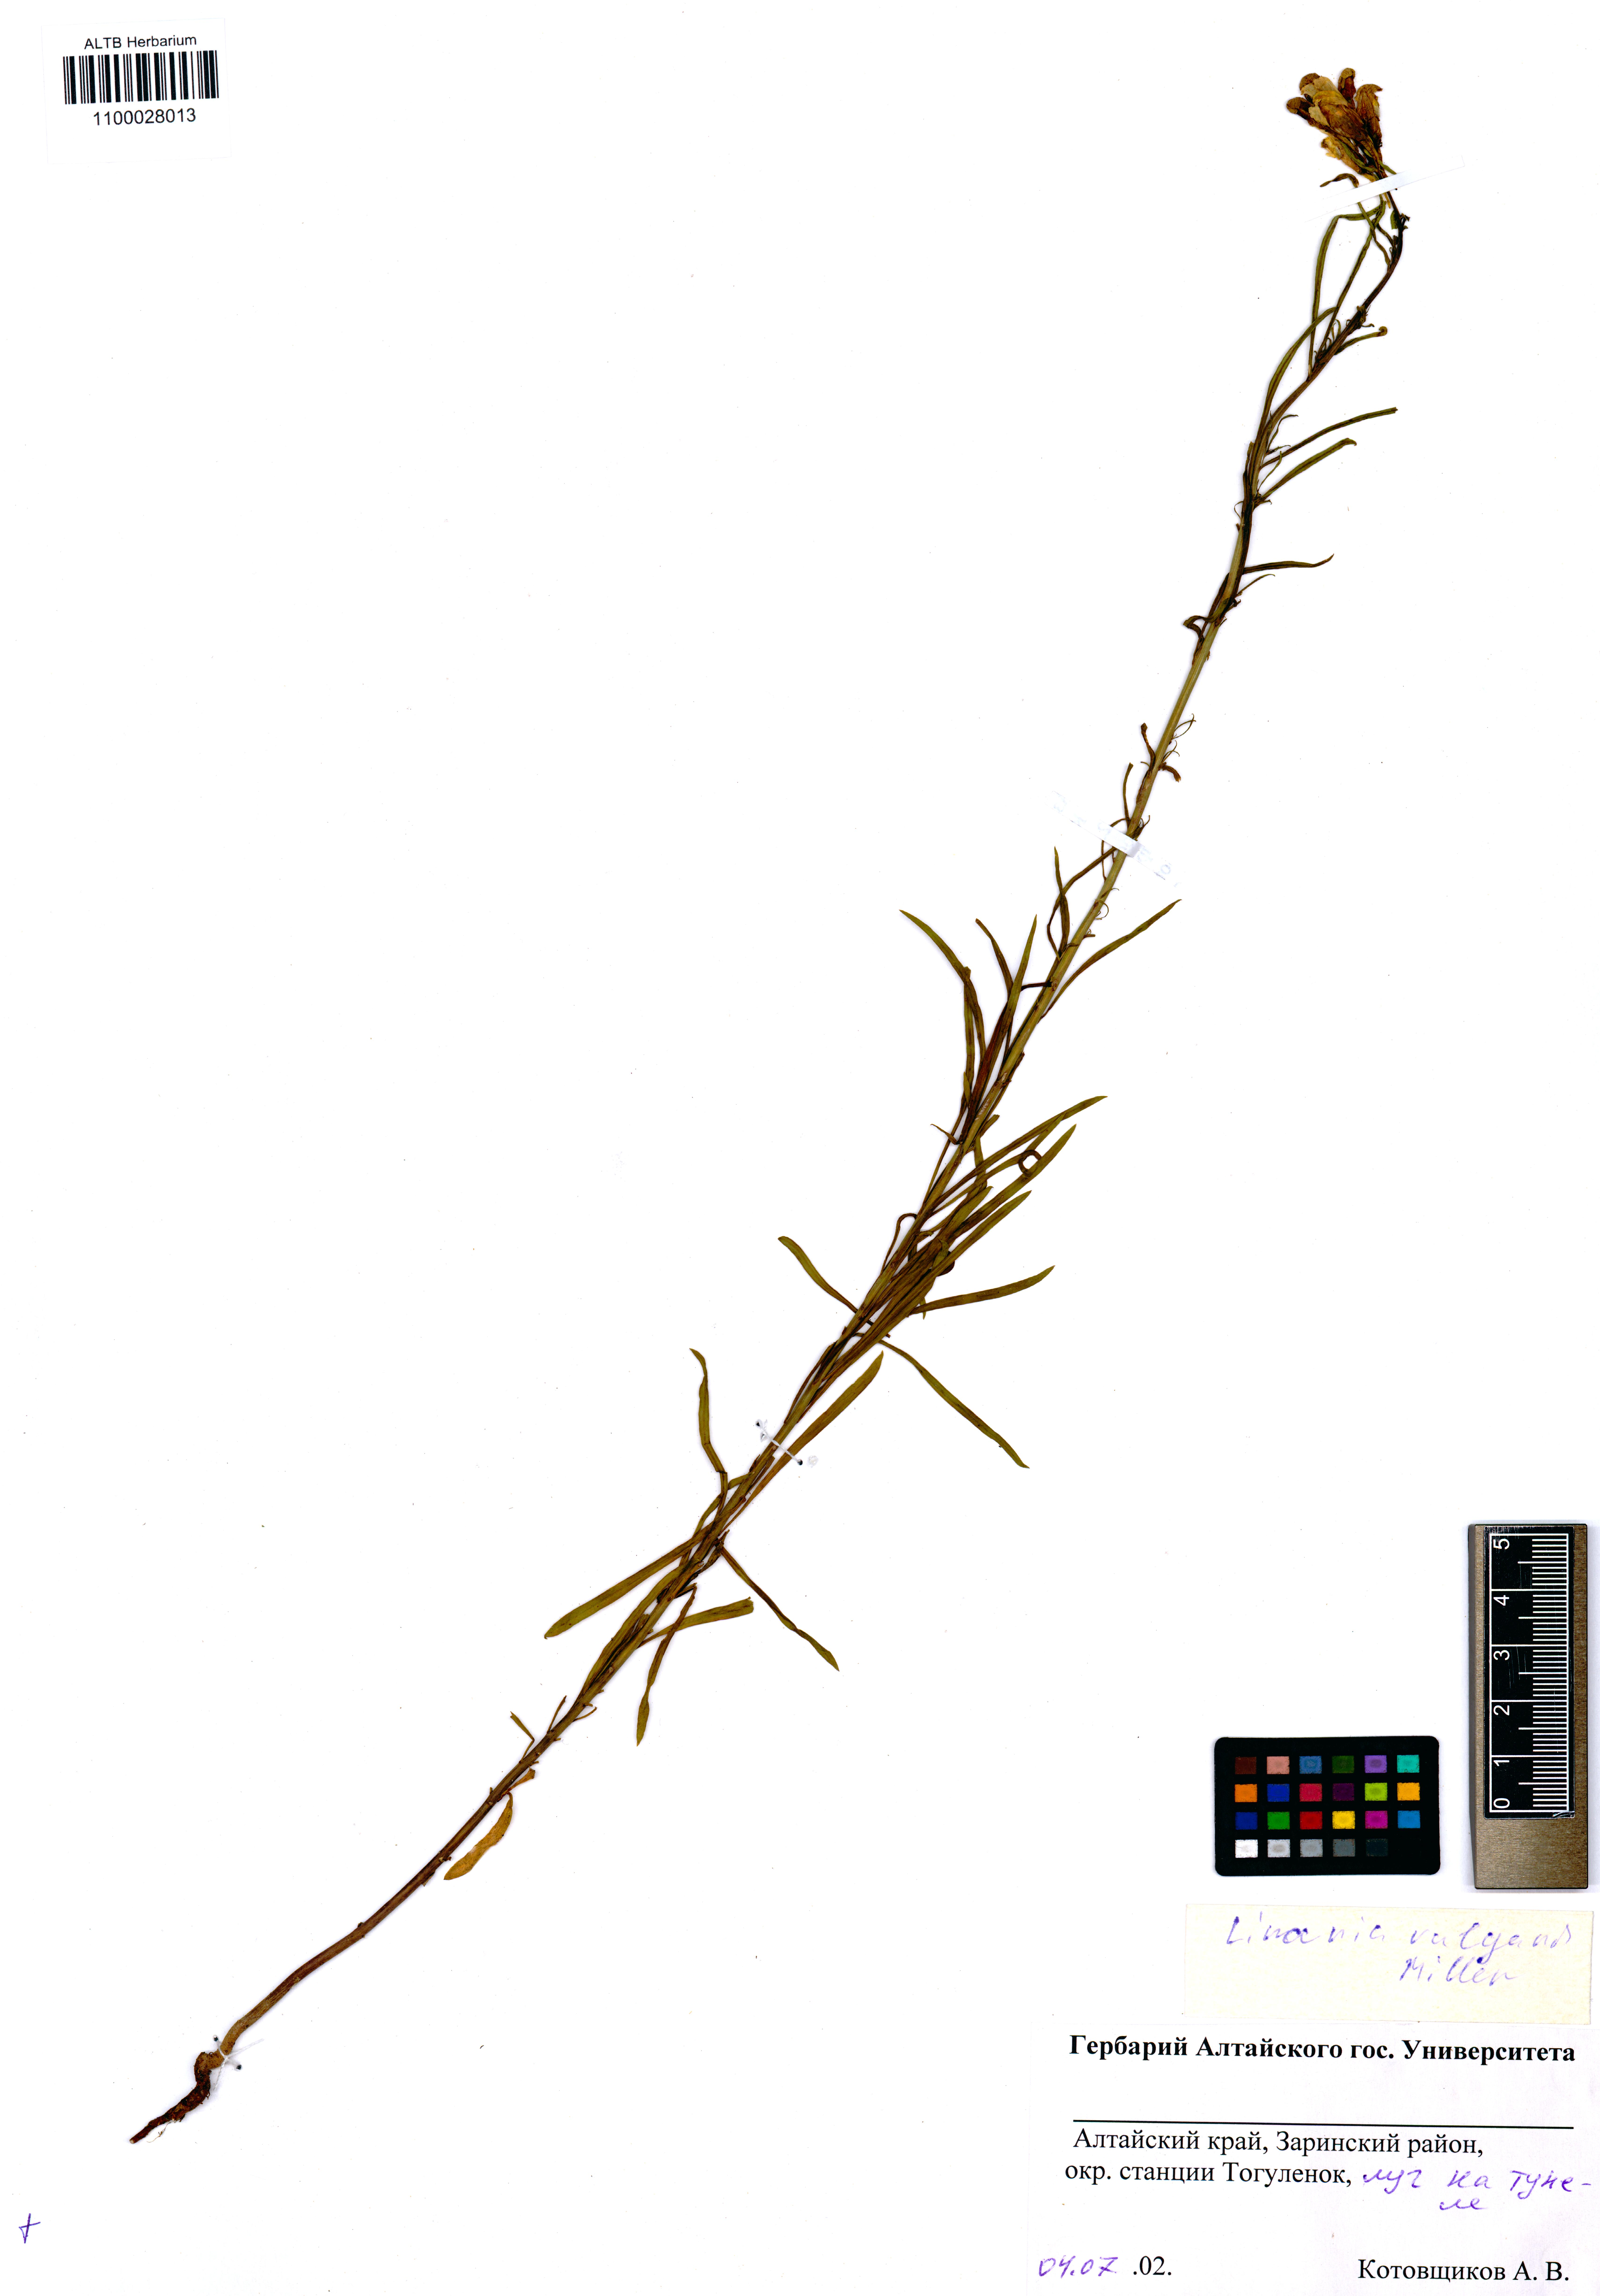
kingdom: Plantae
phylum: Tracheophyta
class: Magnoliopsida
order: Lamiales
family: Plantaginaceae
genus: Linaria
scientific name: Linaria vulgaris
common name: Butter and eggs
